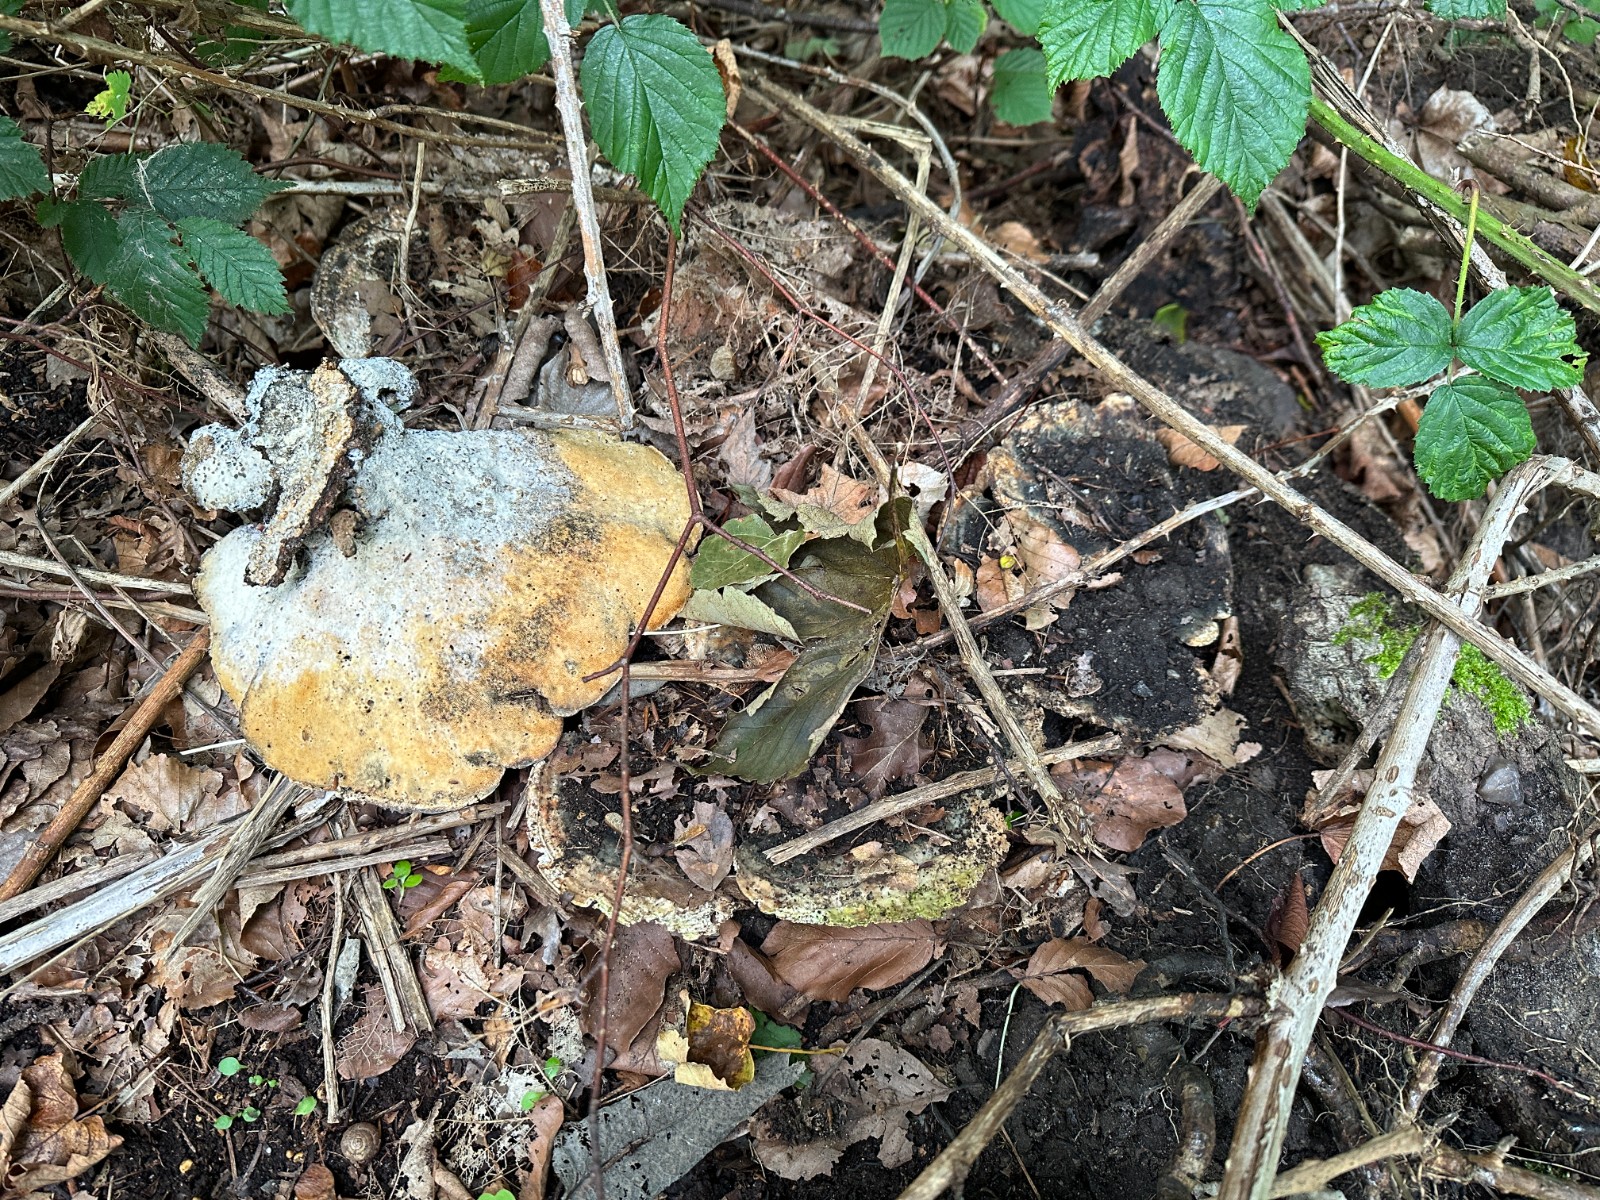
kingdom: Fungi
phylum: Basidiomycota
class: Agaricomycetes
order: Polyporales
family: Polyporaceae
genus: Trametes
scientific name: Trametes gibbosa
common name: puklet læderporesvamp
